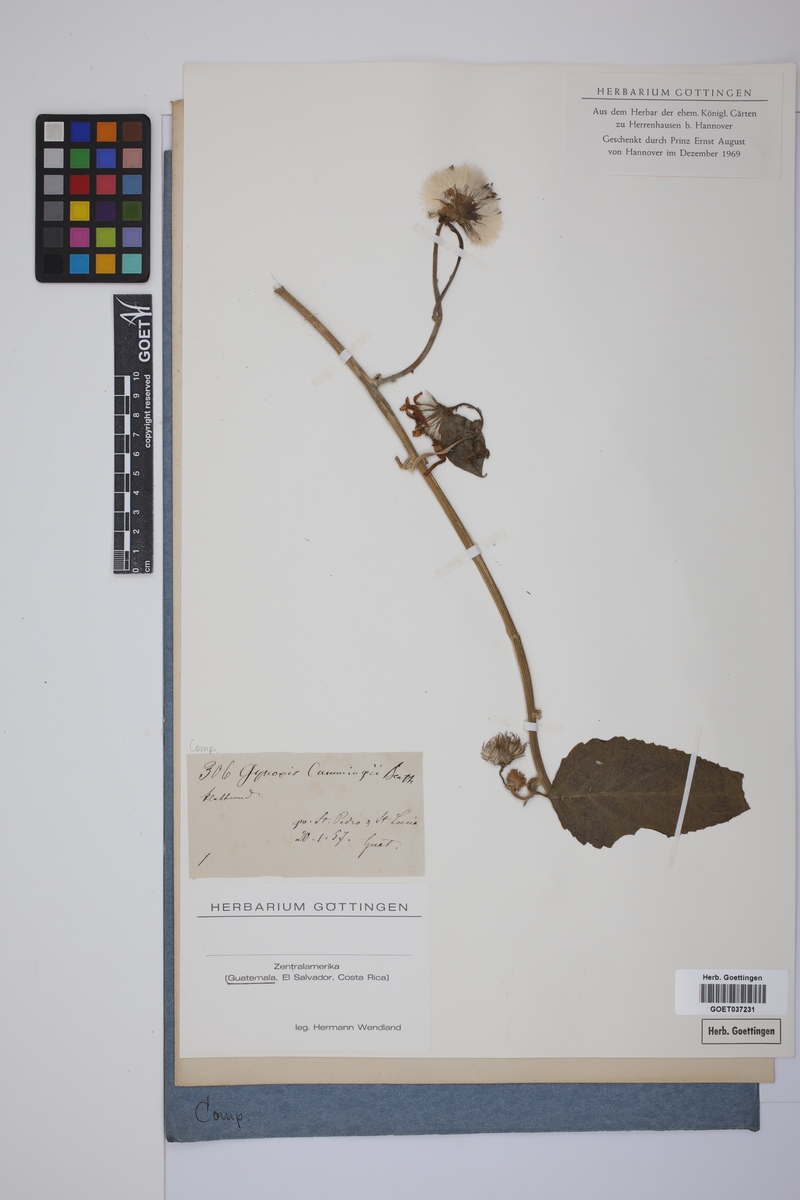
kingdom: Plantae
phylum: Tracheophyta
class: Magnoliopsida
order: Asterales
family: Asteraceae
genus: Pseudogynoxys
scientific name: Pseudogynoxys cumingii
